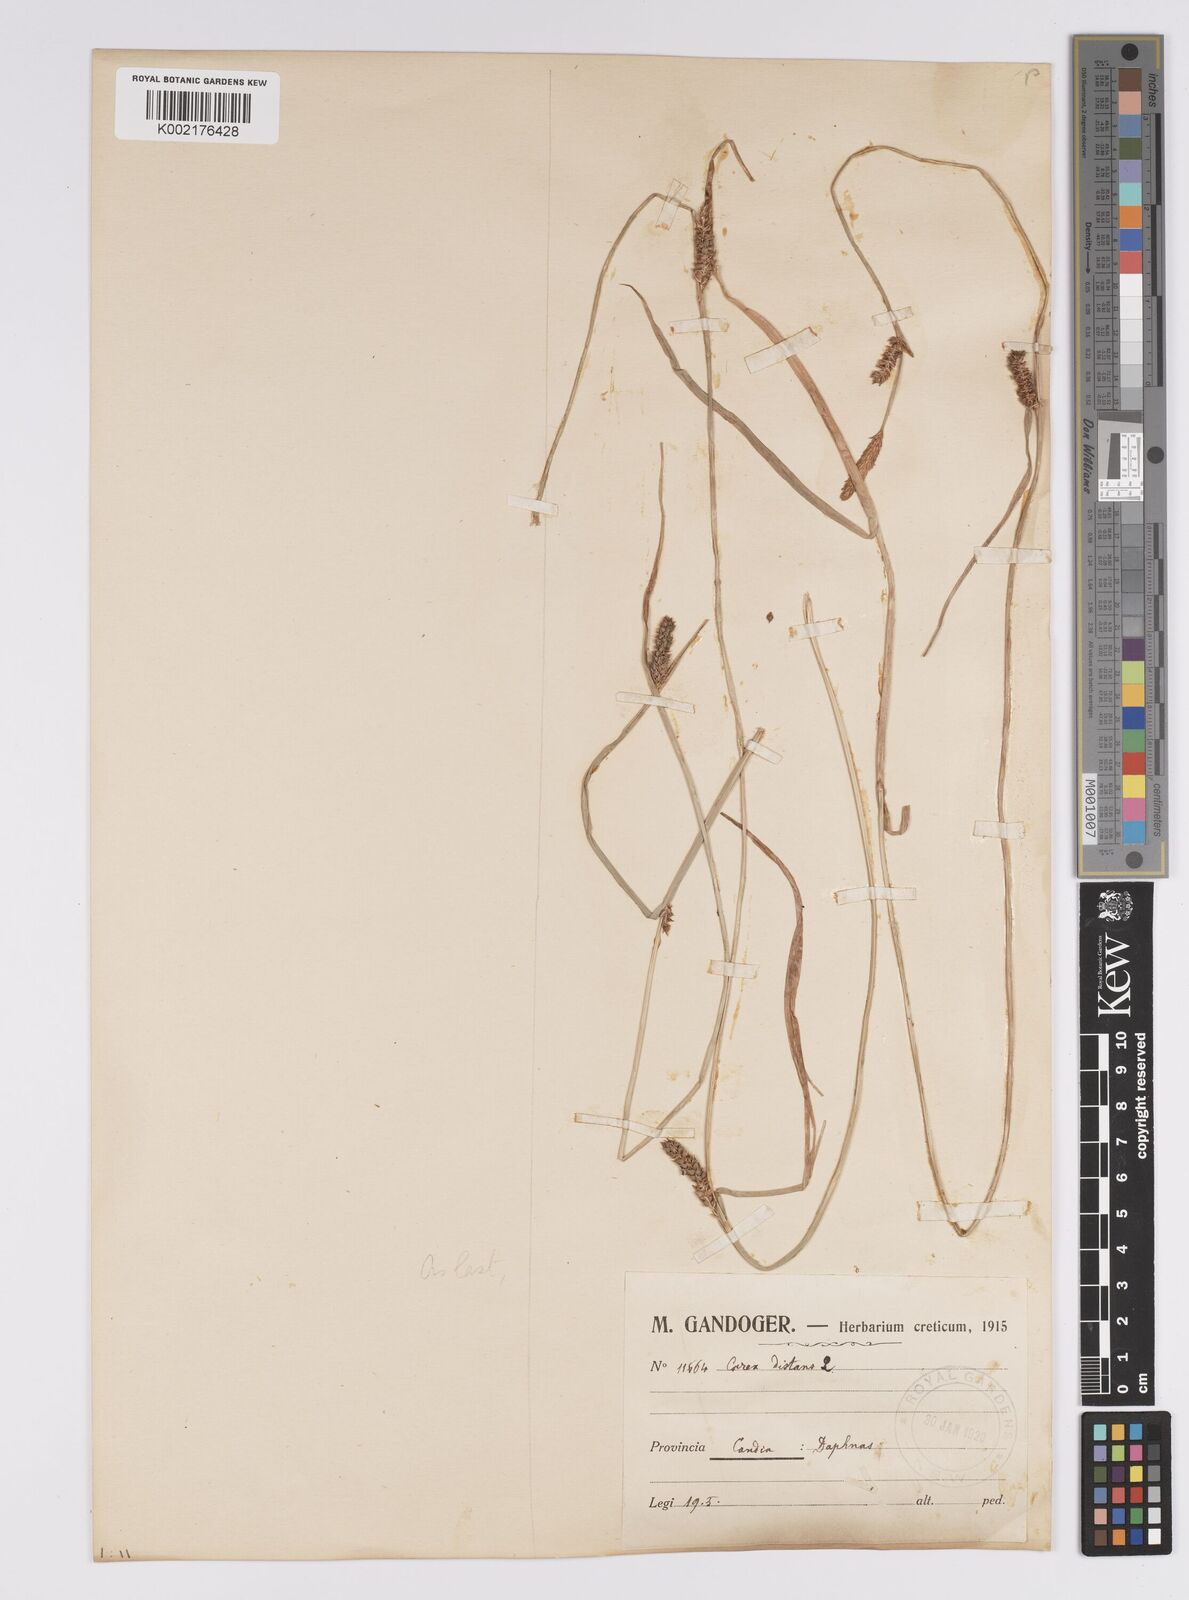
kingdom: Plantae
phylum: Tracheophyta
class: Liliopsida
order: Poales
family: Cyperaceae
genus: Carex
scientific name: Carex distans
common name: Distant sedge
